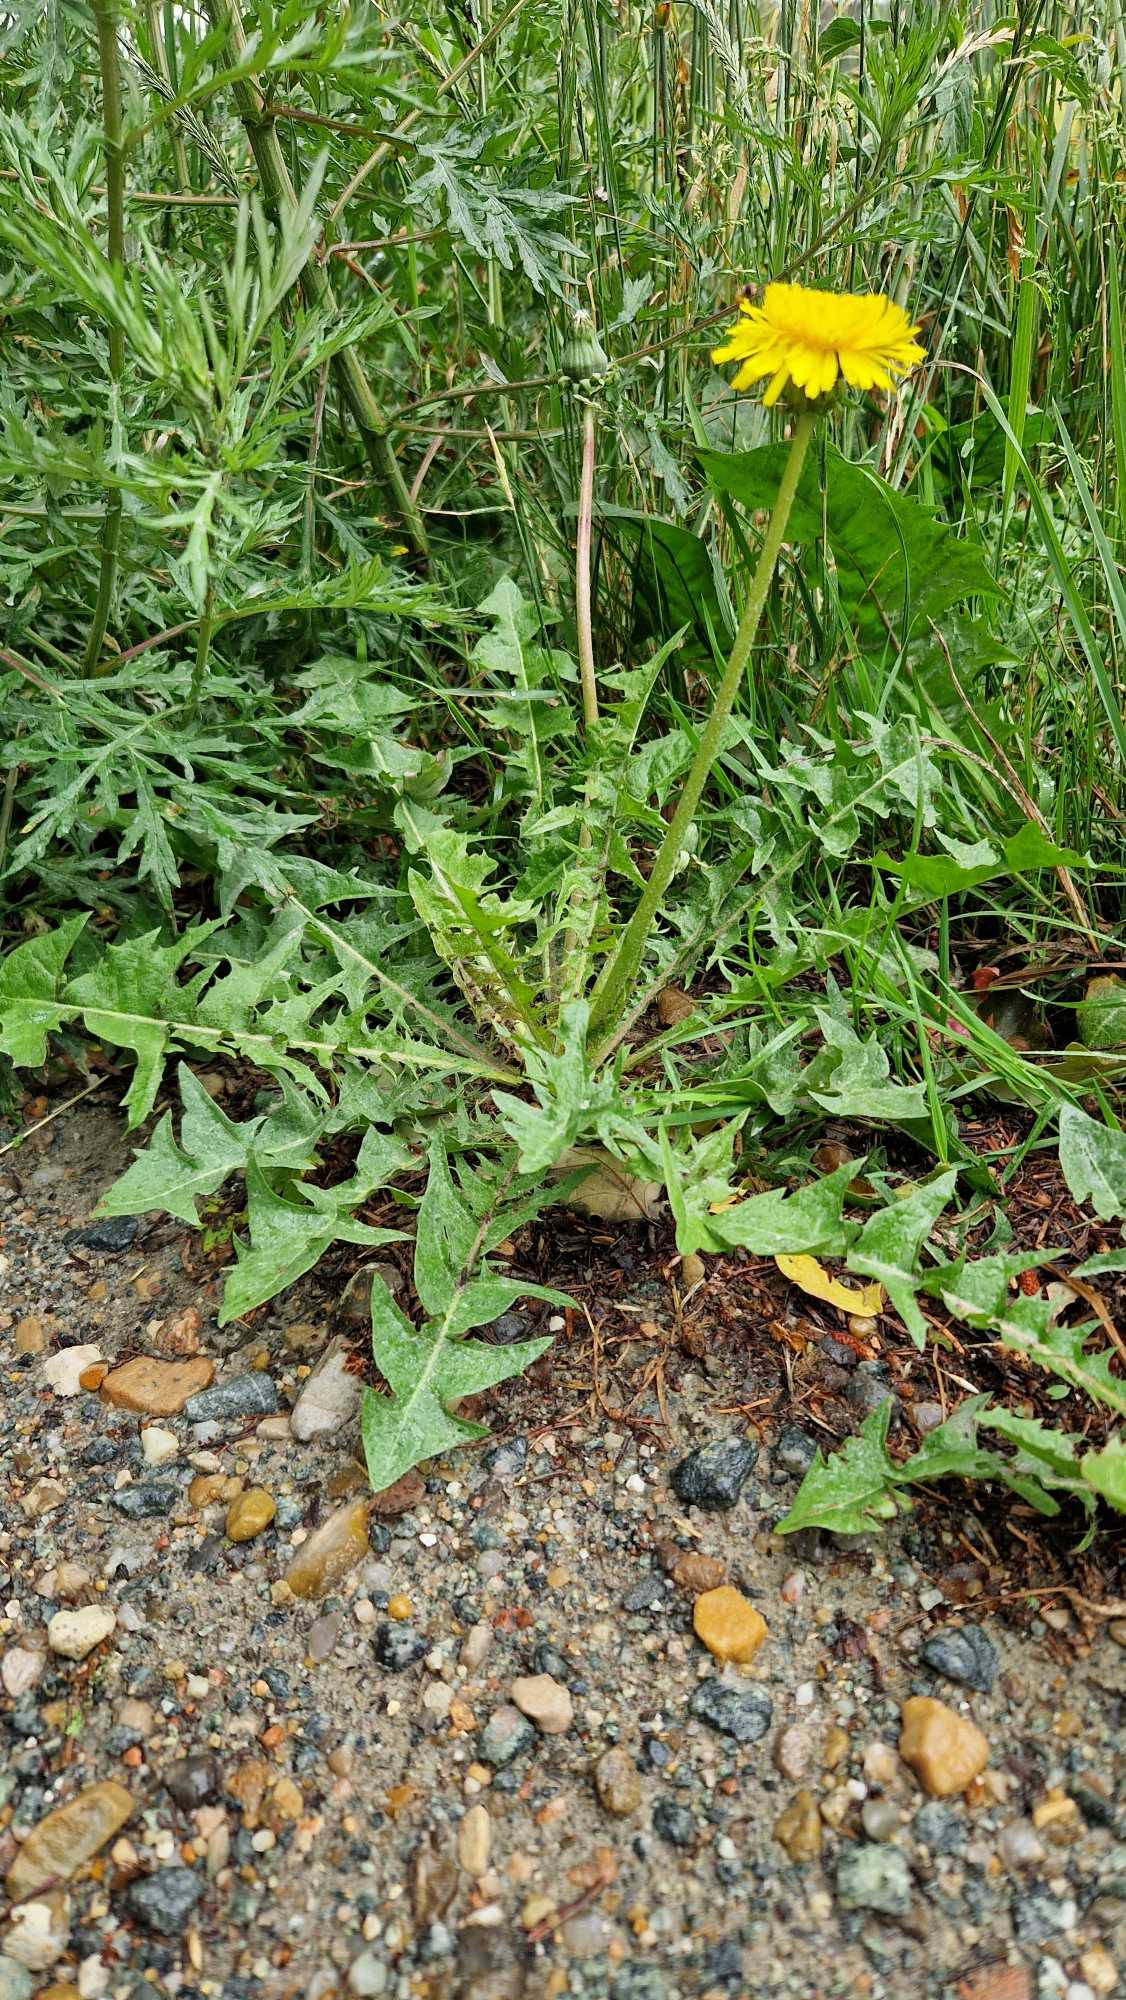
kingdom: Plantae
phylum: Tracheophyta
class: Magnoliopsida
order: Asterales
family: Asteraceae
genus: Taraxacum
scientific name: Taraxacum
